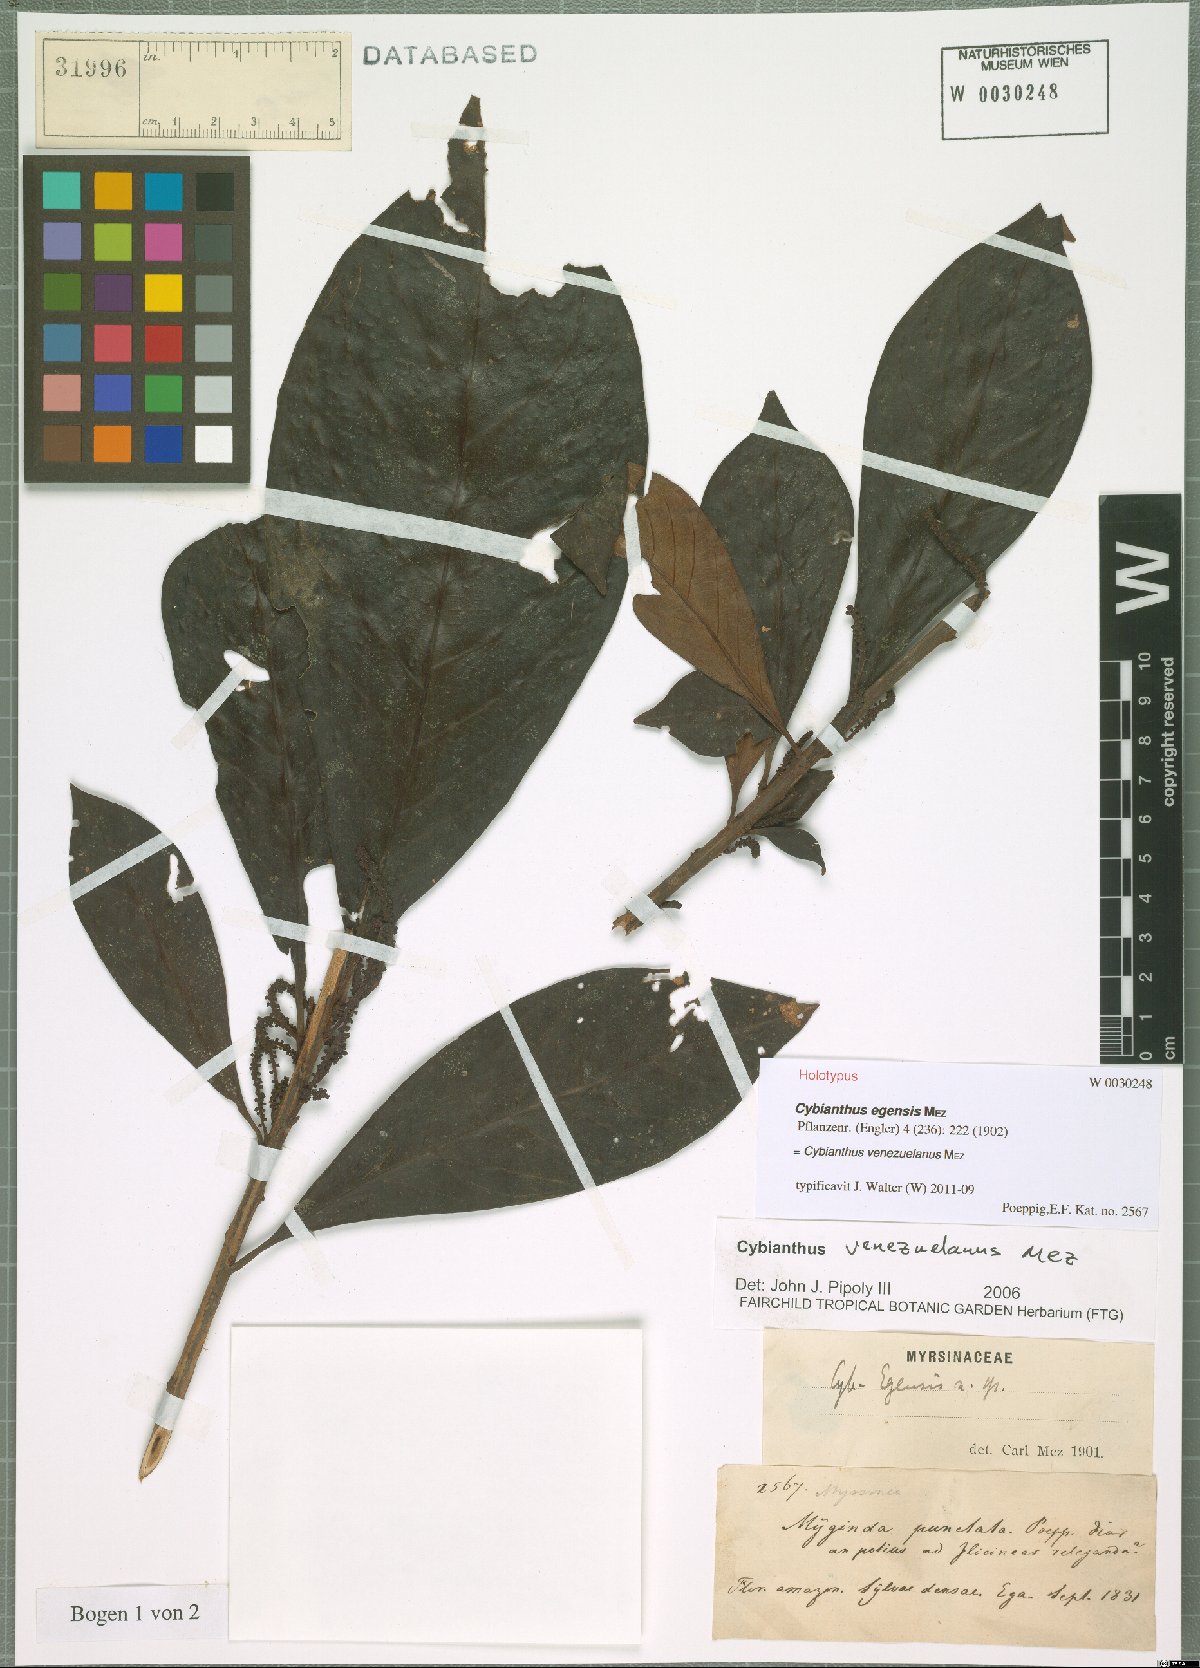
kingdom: Plantae
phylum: Tracheophyta
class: Magnoliopsida
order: Ericales
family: Primulaceae
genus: Cybianthus
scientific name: Cybianthus venezuelanus
